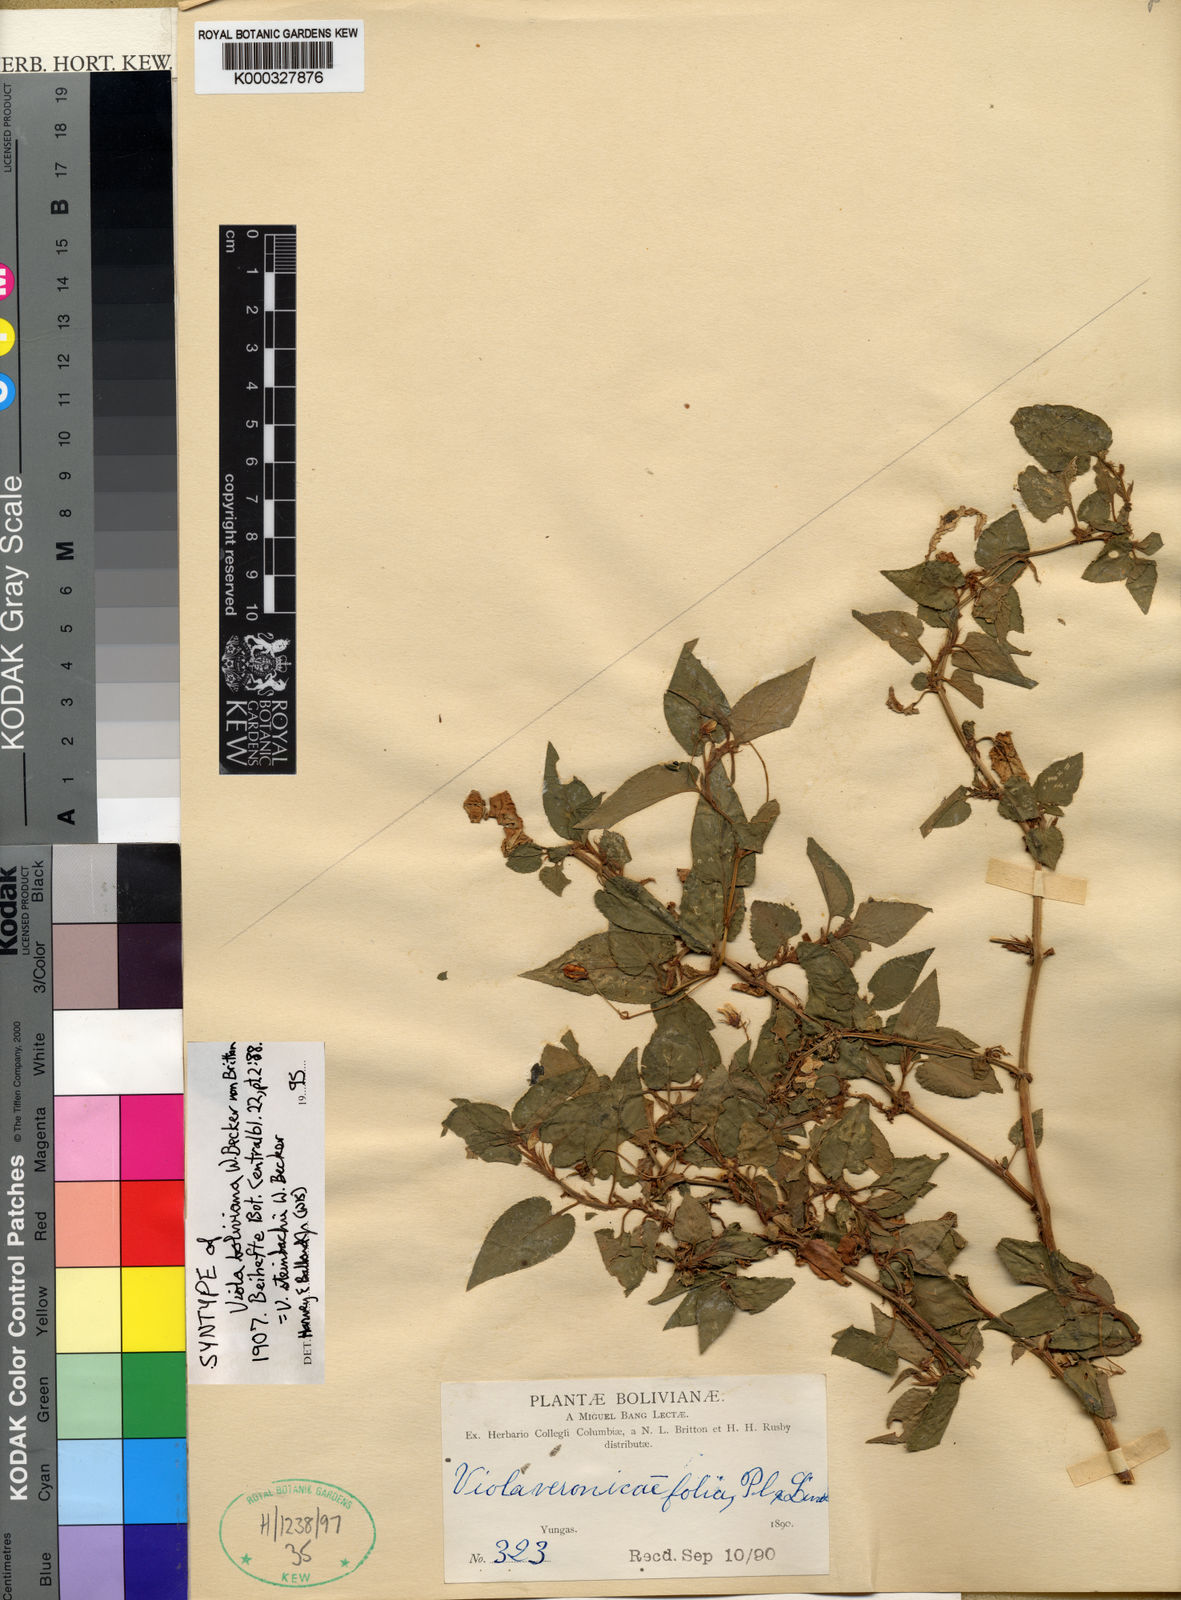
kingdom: Plantae
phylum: Tracheophyta
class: Magnoliopsida
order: Malpighiales
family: Violaceae
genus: Viola
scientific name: Viola steinbachii
